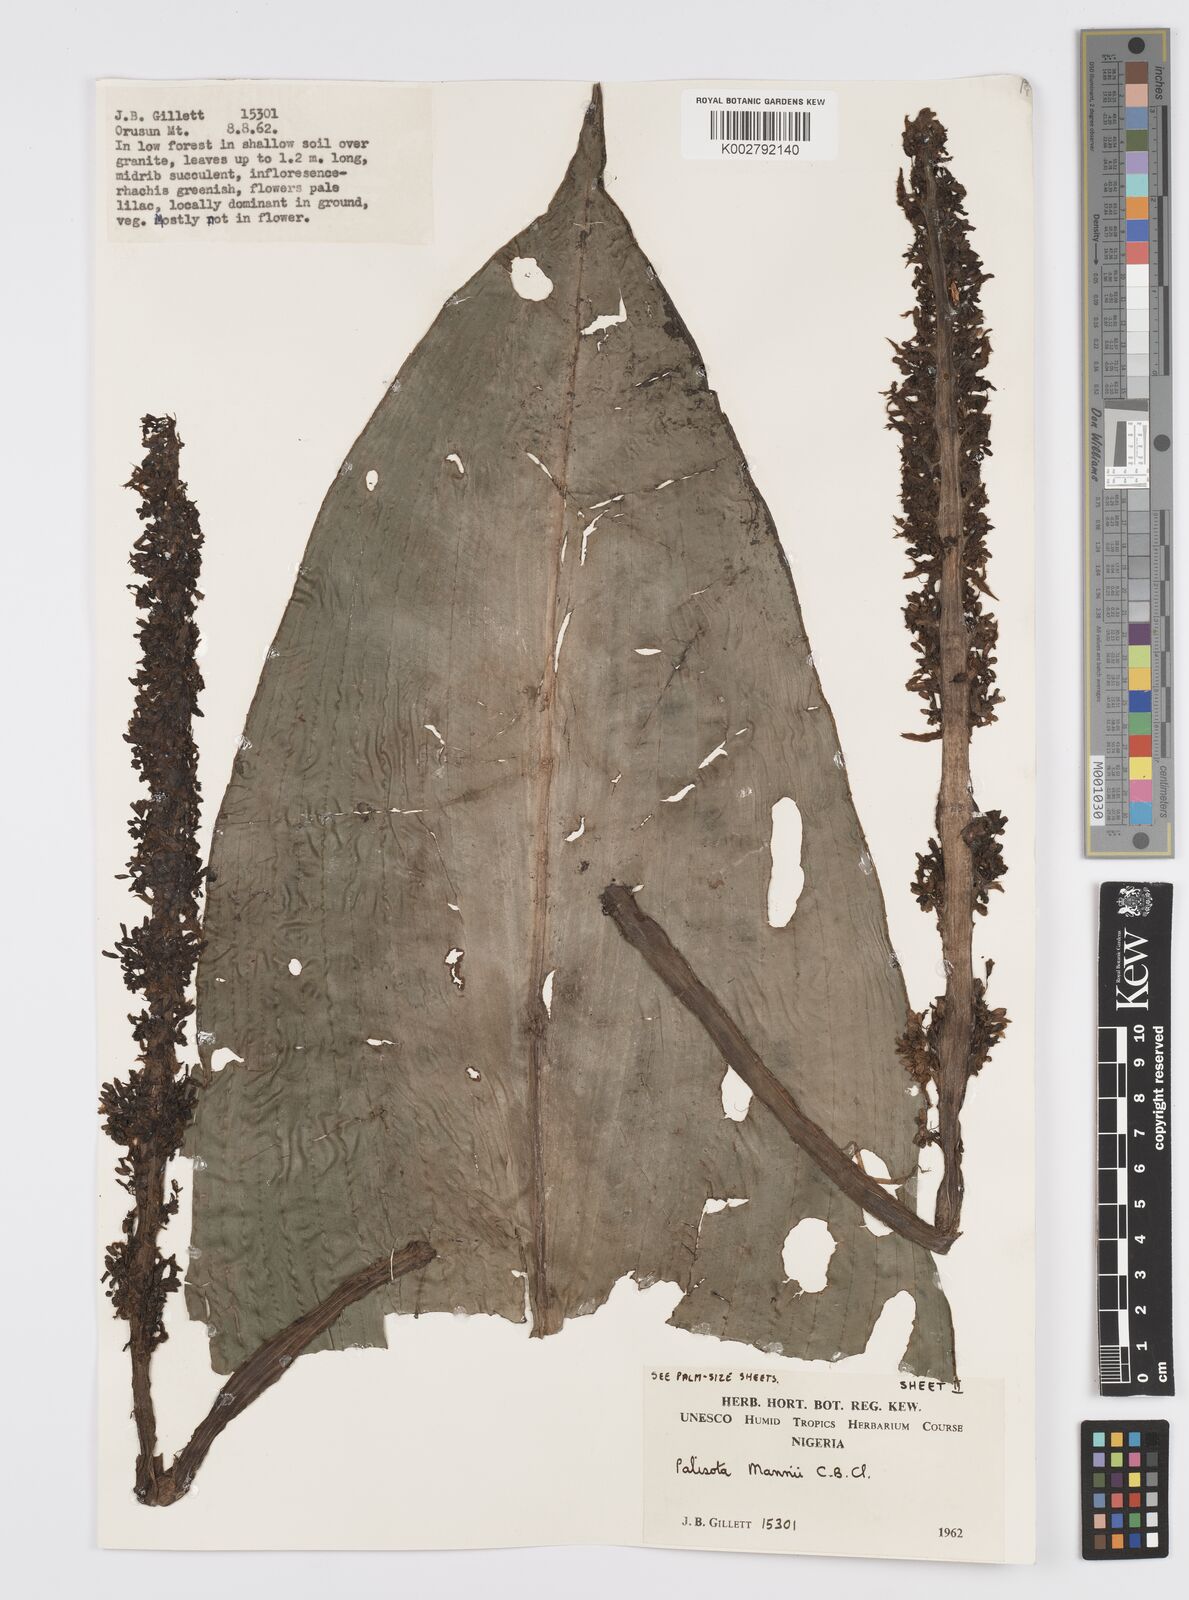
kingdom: Plantae
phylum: Tracheophyta
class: Liliopsida
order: Commelinales
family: Commelinaceae
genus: Palisota
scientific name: Palisota mannii
